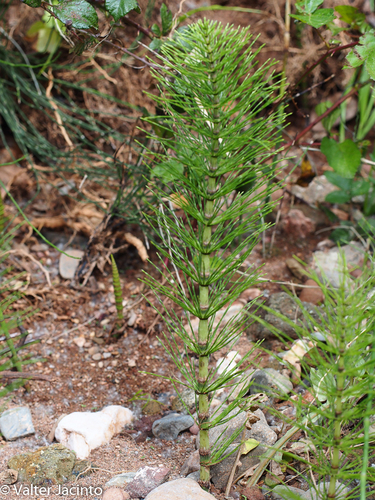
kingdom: Plantae
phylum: Tracheophyta
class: Polypodiopsida
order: Equisetales
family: Equisetaceae
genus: Equisetum
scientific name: Equisetum telmateia
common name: Great horsetail
